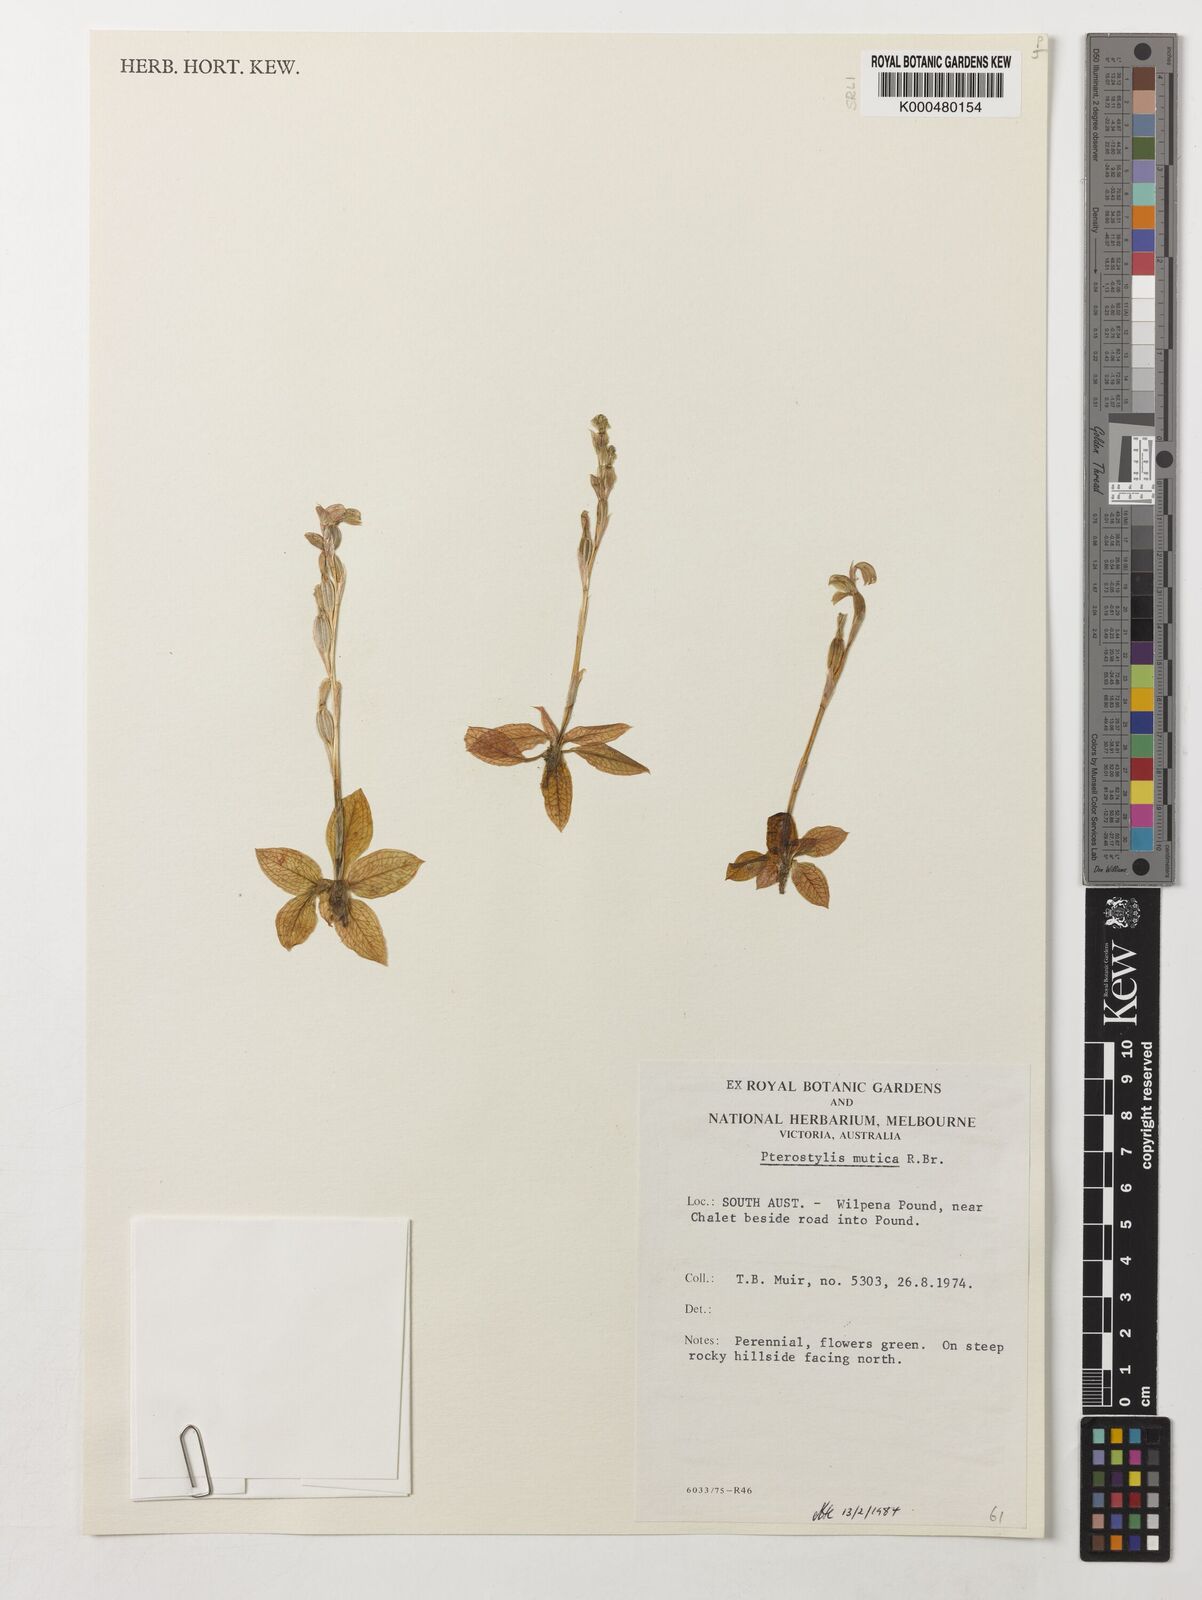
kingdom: Plantae
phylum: Tracheophyta
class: Liliopsida
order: Asparagales
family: Orchidaceae
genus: Pterostylis
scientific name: Pterostylis mutica
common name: Midget greenhood
